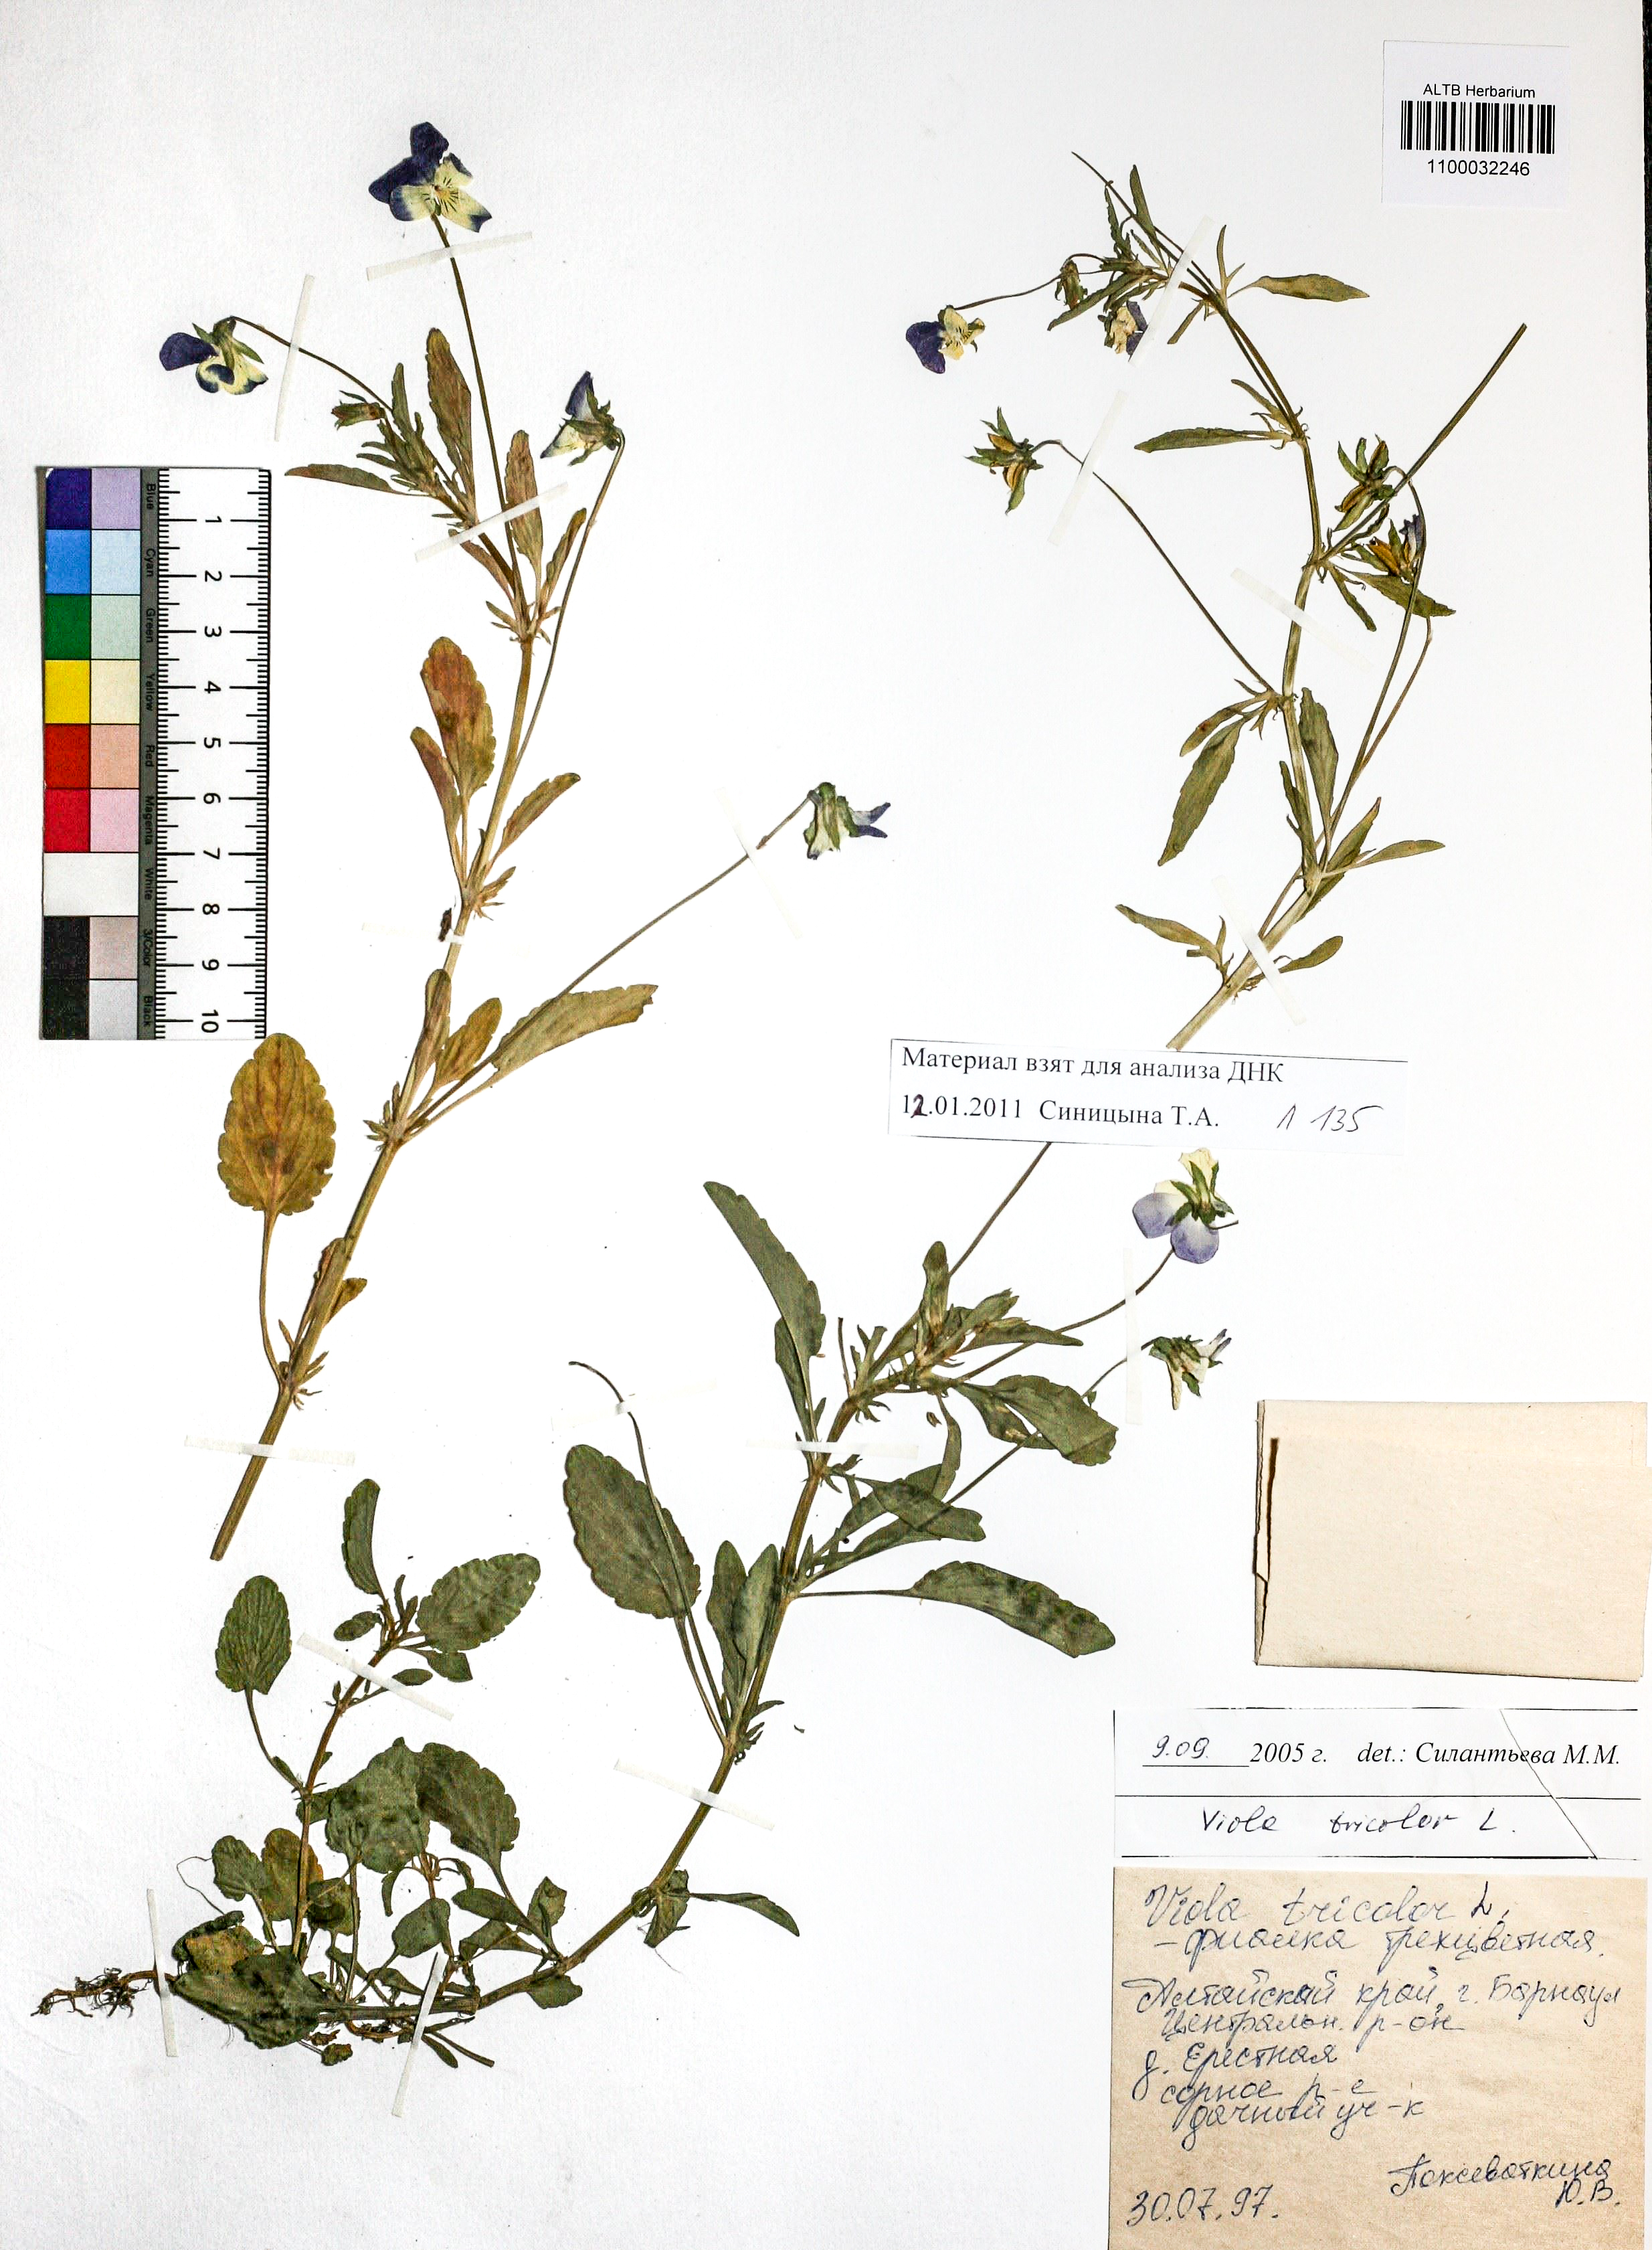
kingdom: Plantae
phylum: Tracheophyta
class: Magnoliopsida
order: Malpighiales
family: Violaceae
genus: Viola
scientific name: Viola tricolor
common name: Pansy
